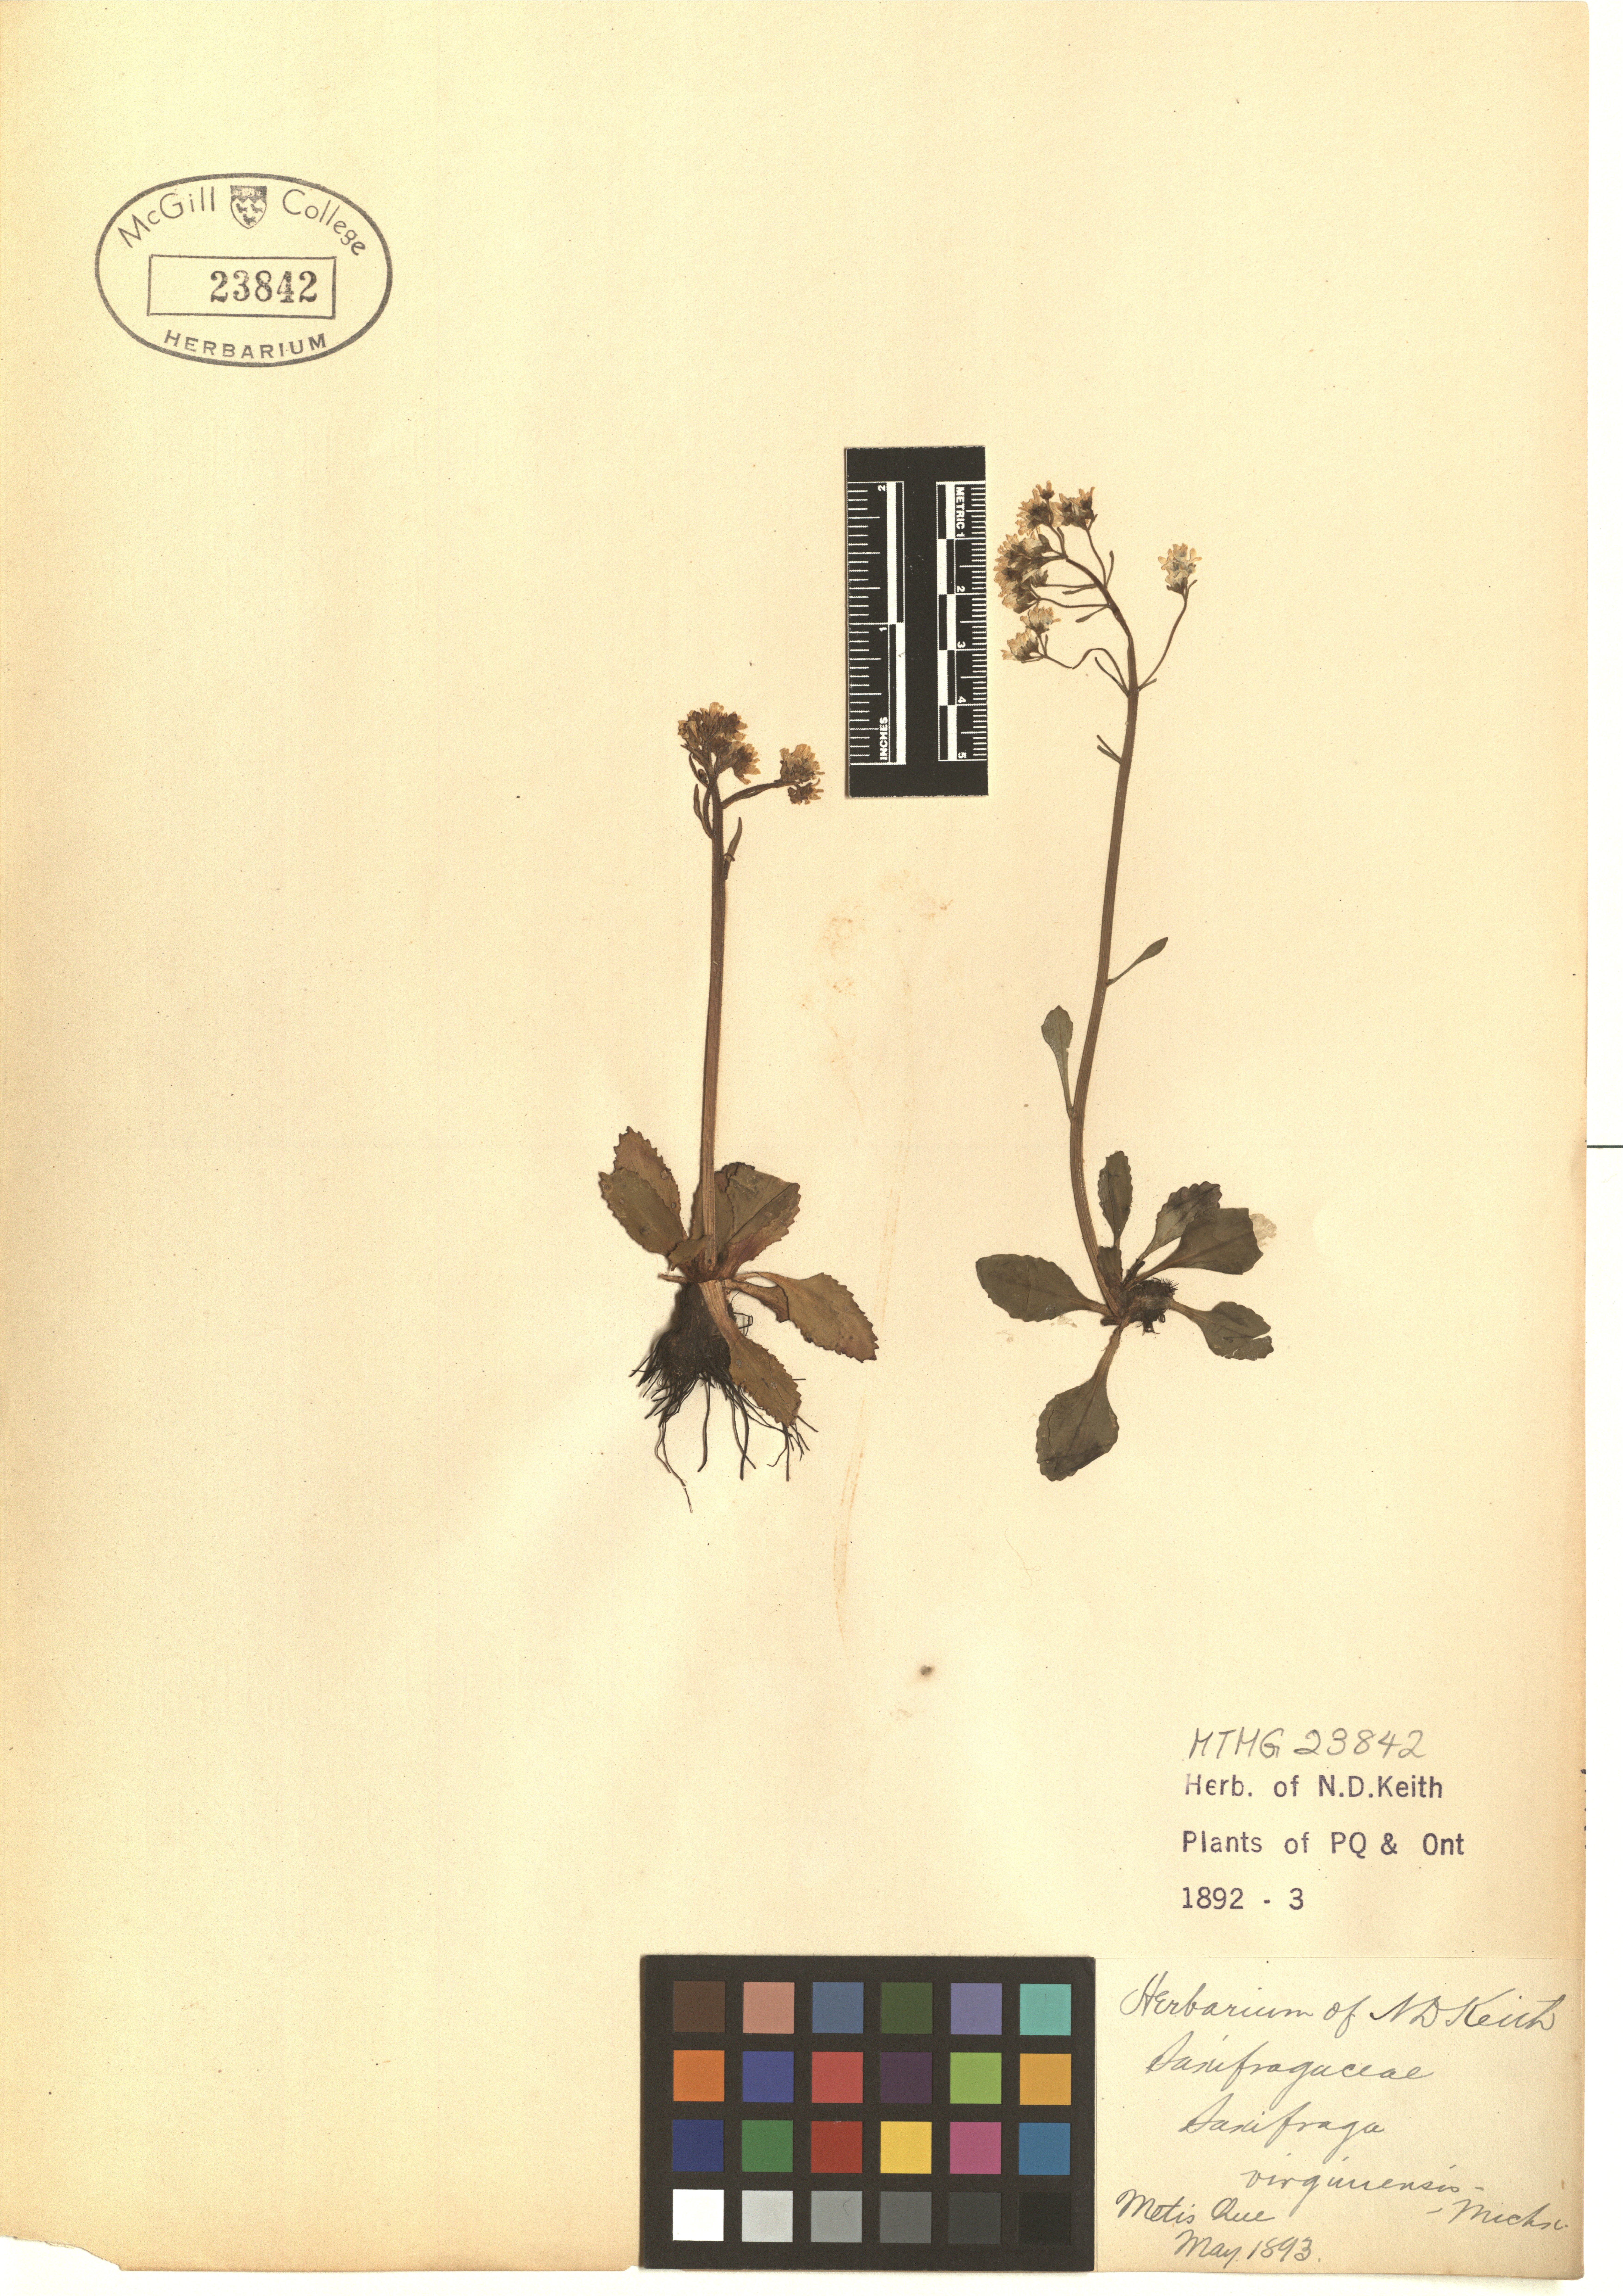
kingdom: Plantae
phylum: Tracheophyta
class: Magnoliopsida
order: Saxifragales
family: Saxifragaceae
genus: Micranthes
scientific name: Micranthes virginiensis
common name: Early saxifrage
